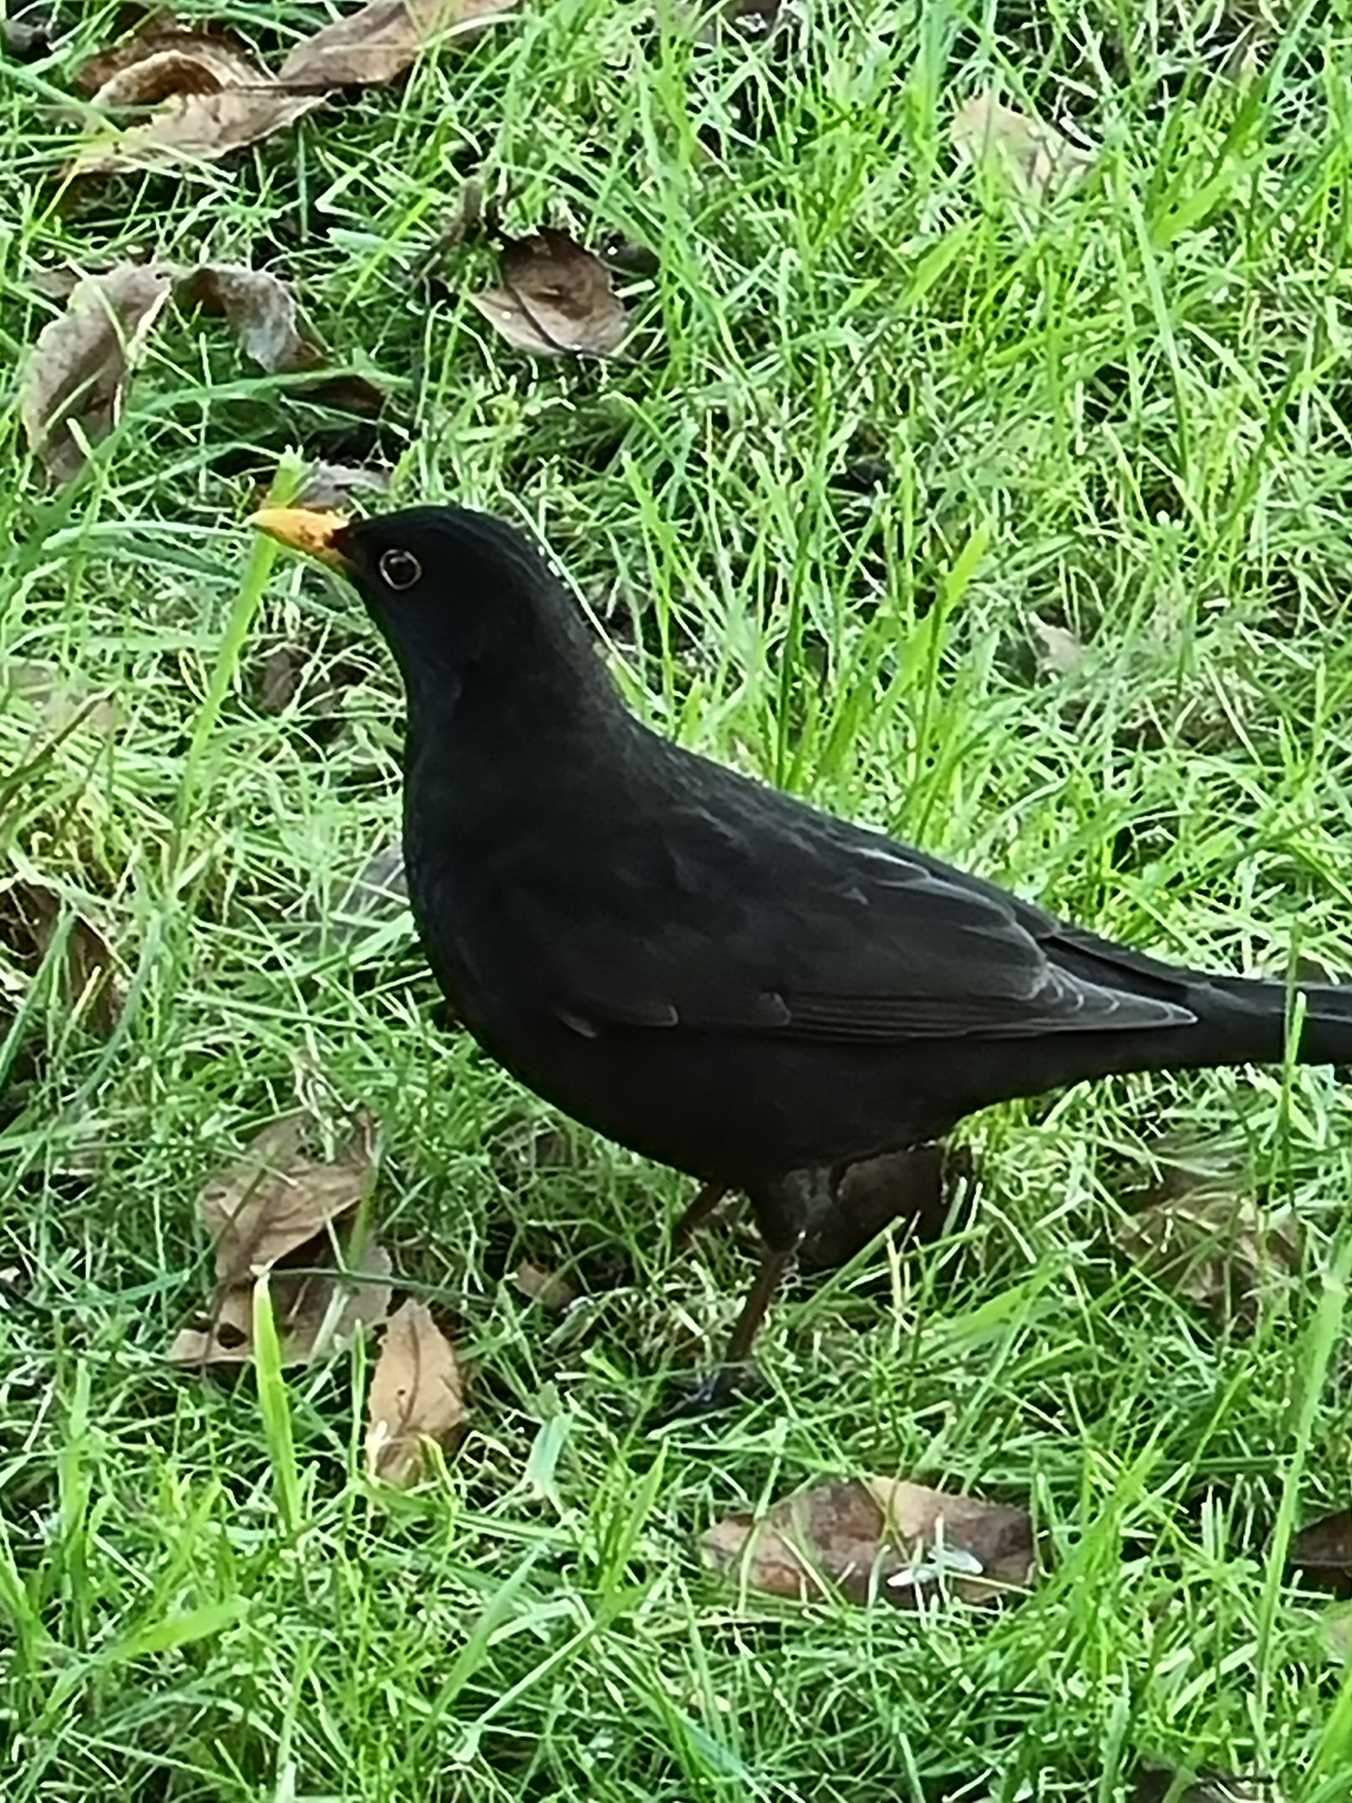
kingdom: Animalia
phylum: Chordata
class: Aves
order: Passeriformes
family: Turdidae
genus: Turdus
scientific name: Turdus merula
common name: Solsort
